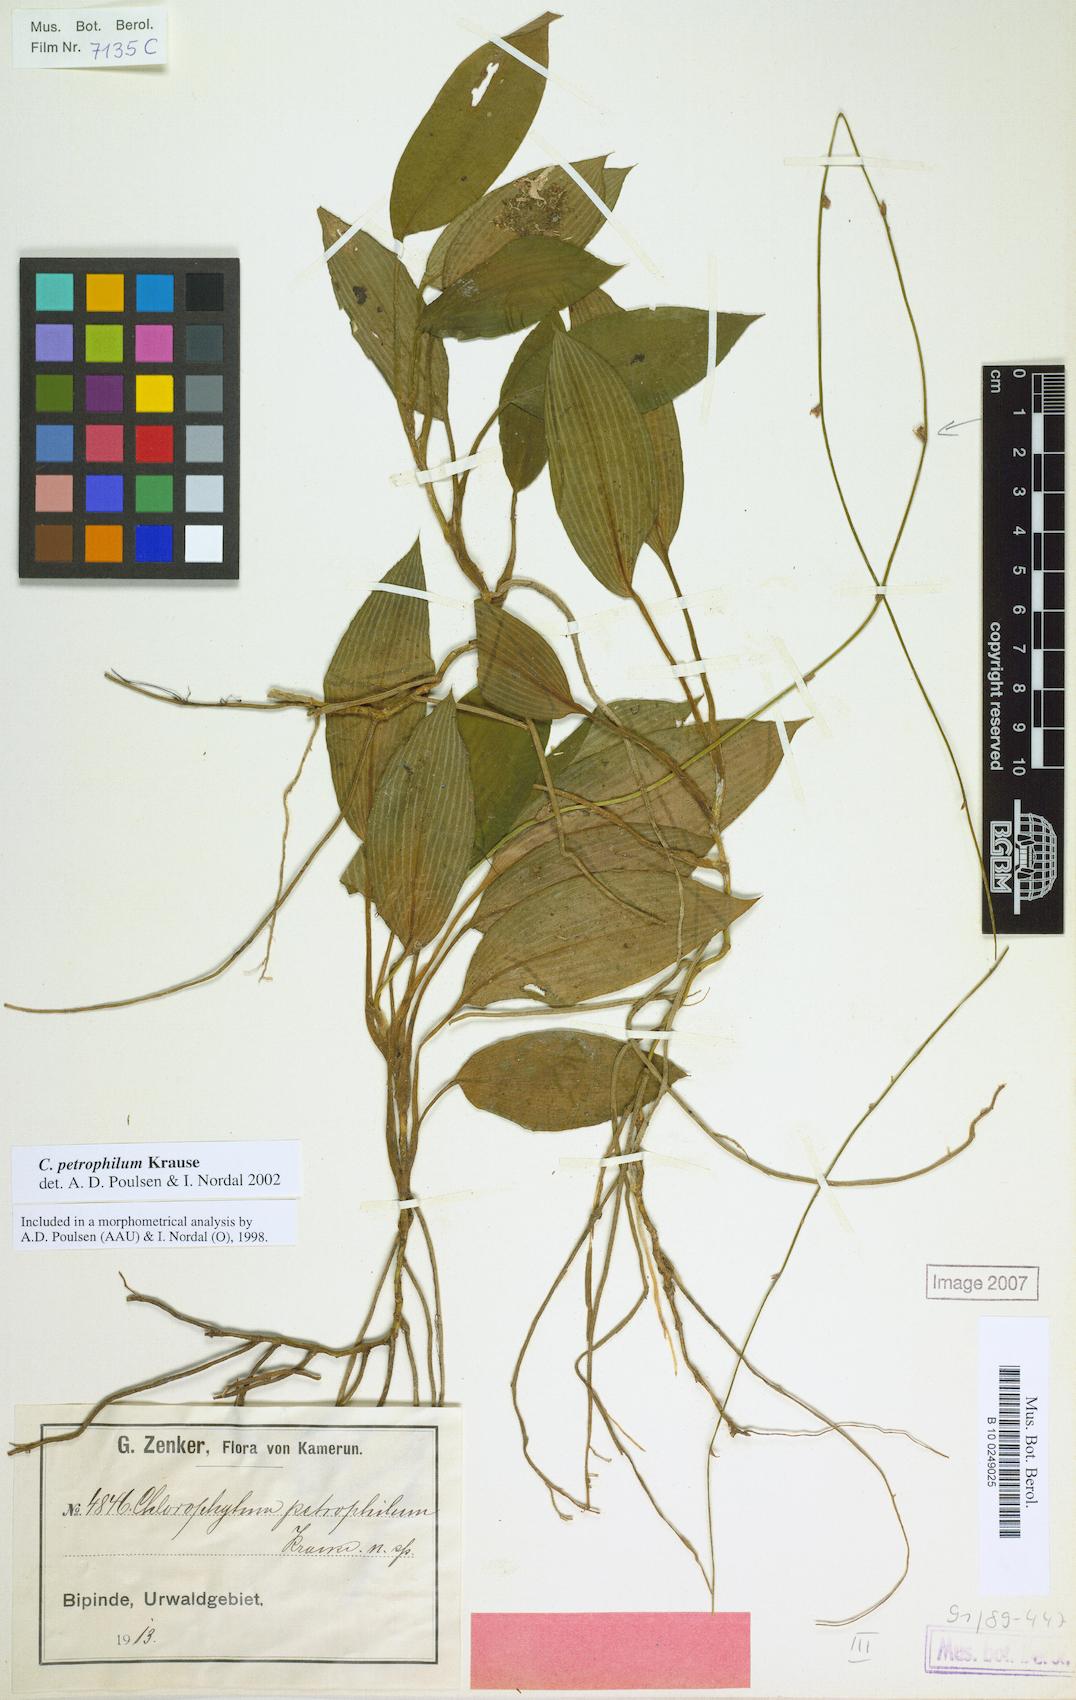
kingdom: Plantae
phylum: Tracheophyta
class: Liliopsida
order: Asparagales
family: Asparagaceae
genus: Chlorophytum
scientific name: Chlorophytum petrophilum
